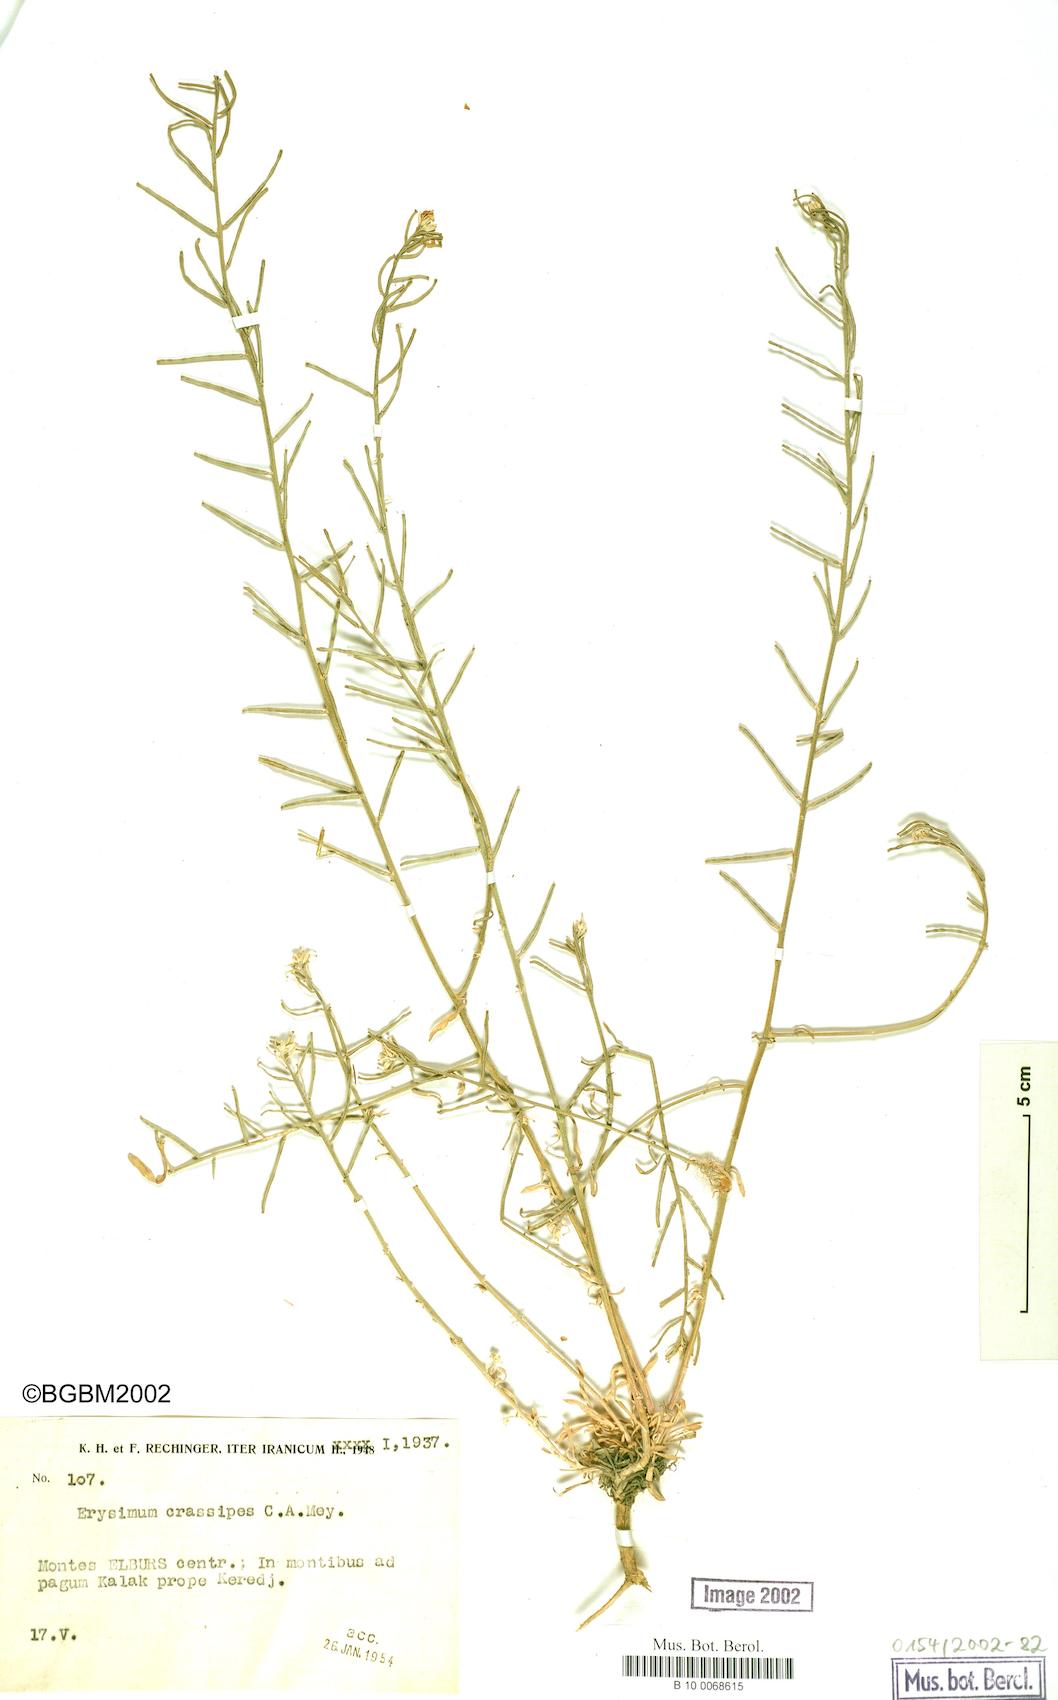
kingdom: Plantae
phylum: Tracheophyta
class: Magnoliopsida
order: Brassicales
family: Brassicaceae
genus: Erysimum
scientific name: Erysimum crassipes
